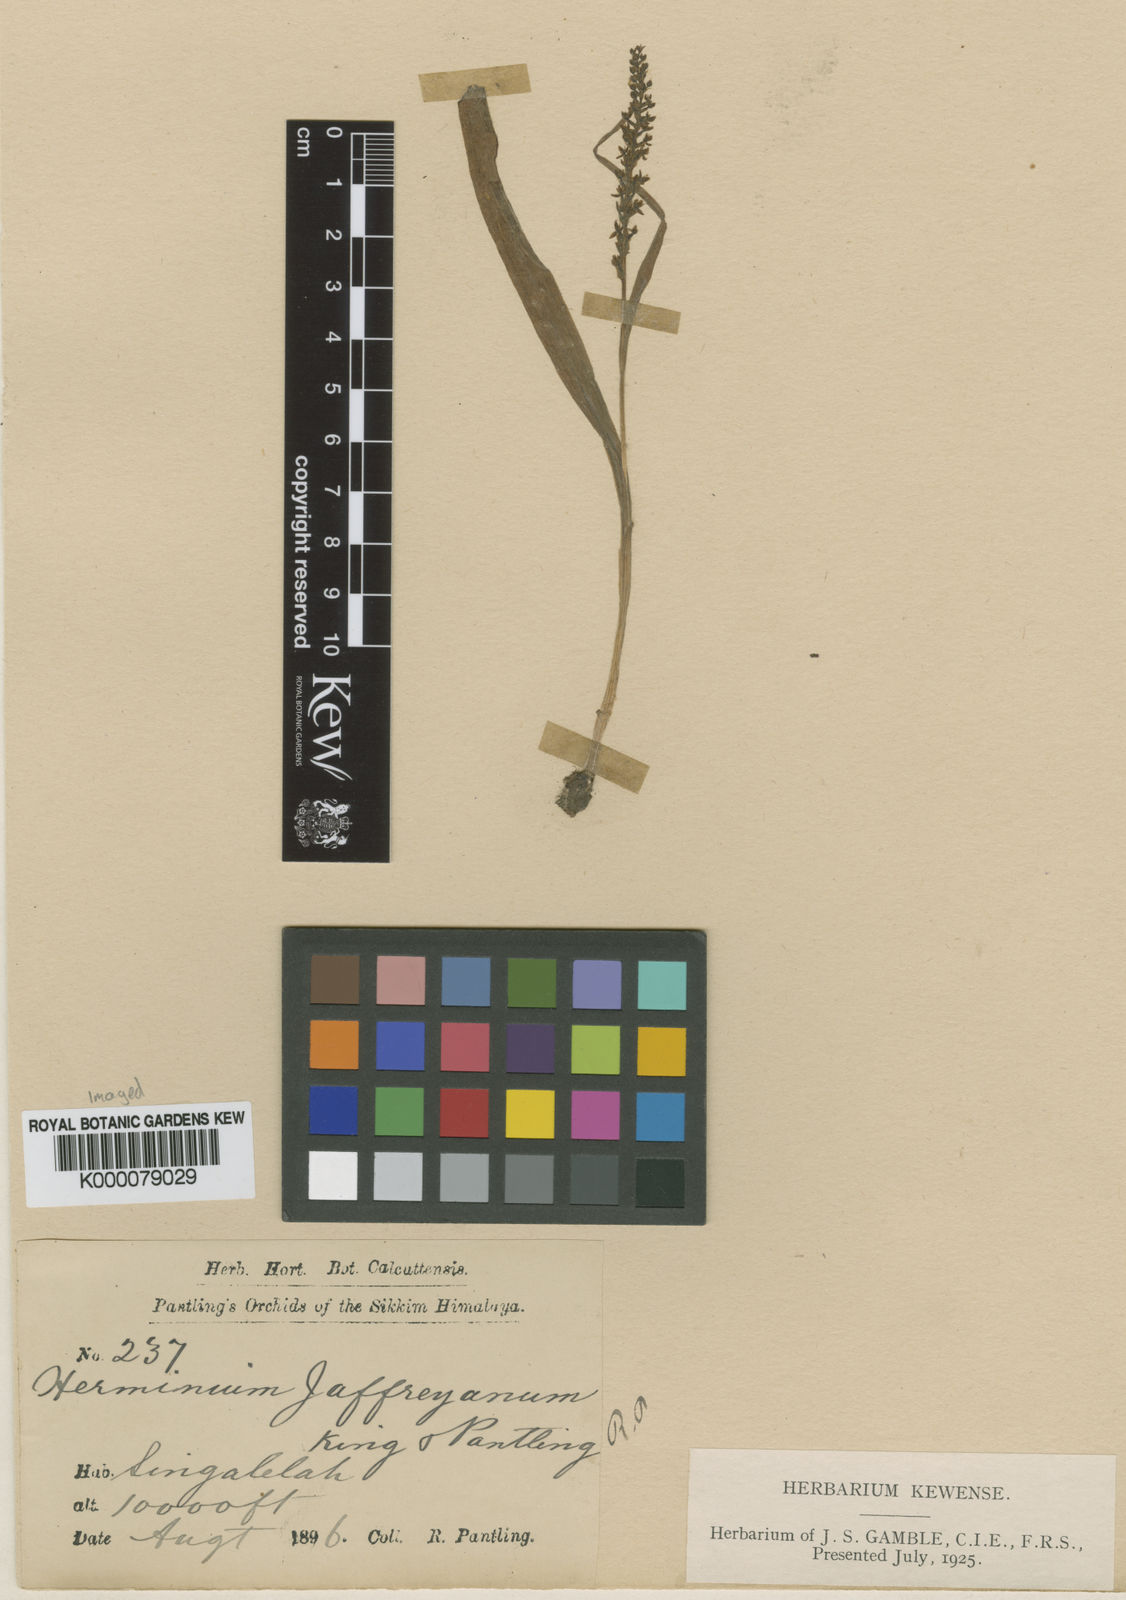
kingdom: Plantae
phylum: Tracheophyta
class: Liliopsida
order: Asparagales
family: Orchidaceae
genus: Herminium
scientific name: Herminium jaffreyanum
